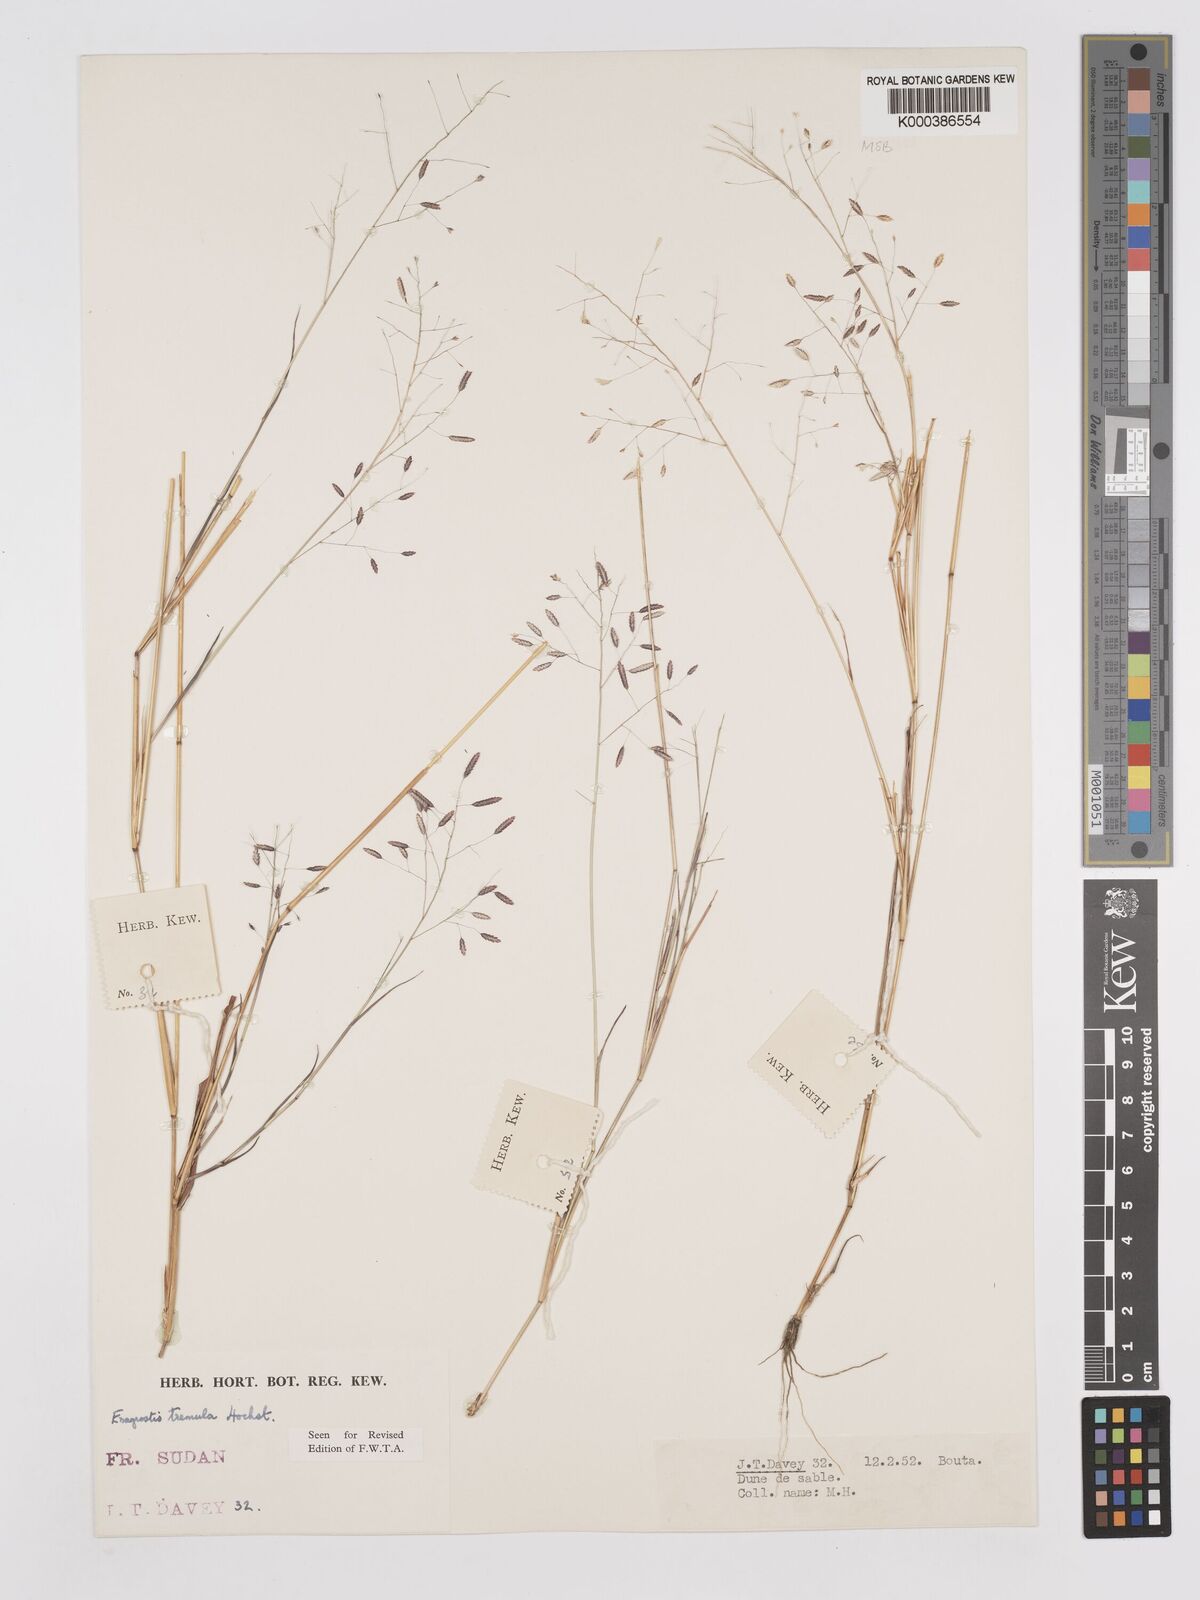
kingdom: Plantae
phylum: Tracheophyta
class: Liliopsida
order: Poales
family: Poaceae
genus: Eragrostis
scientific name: Eragrostis tremula
